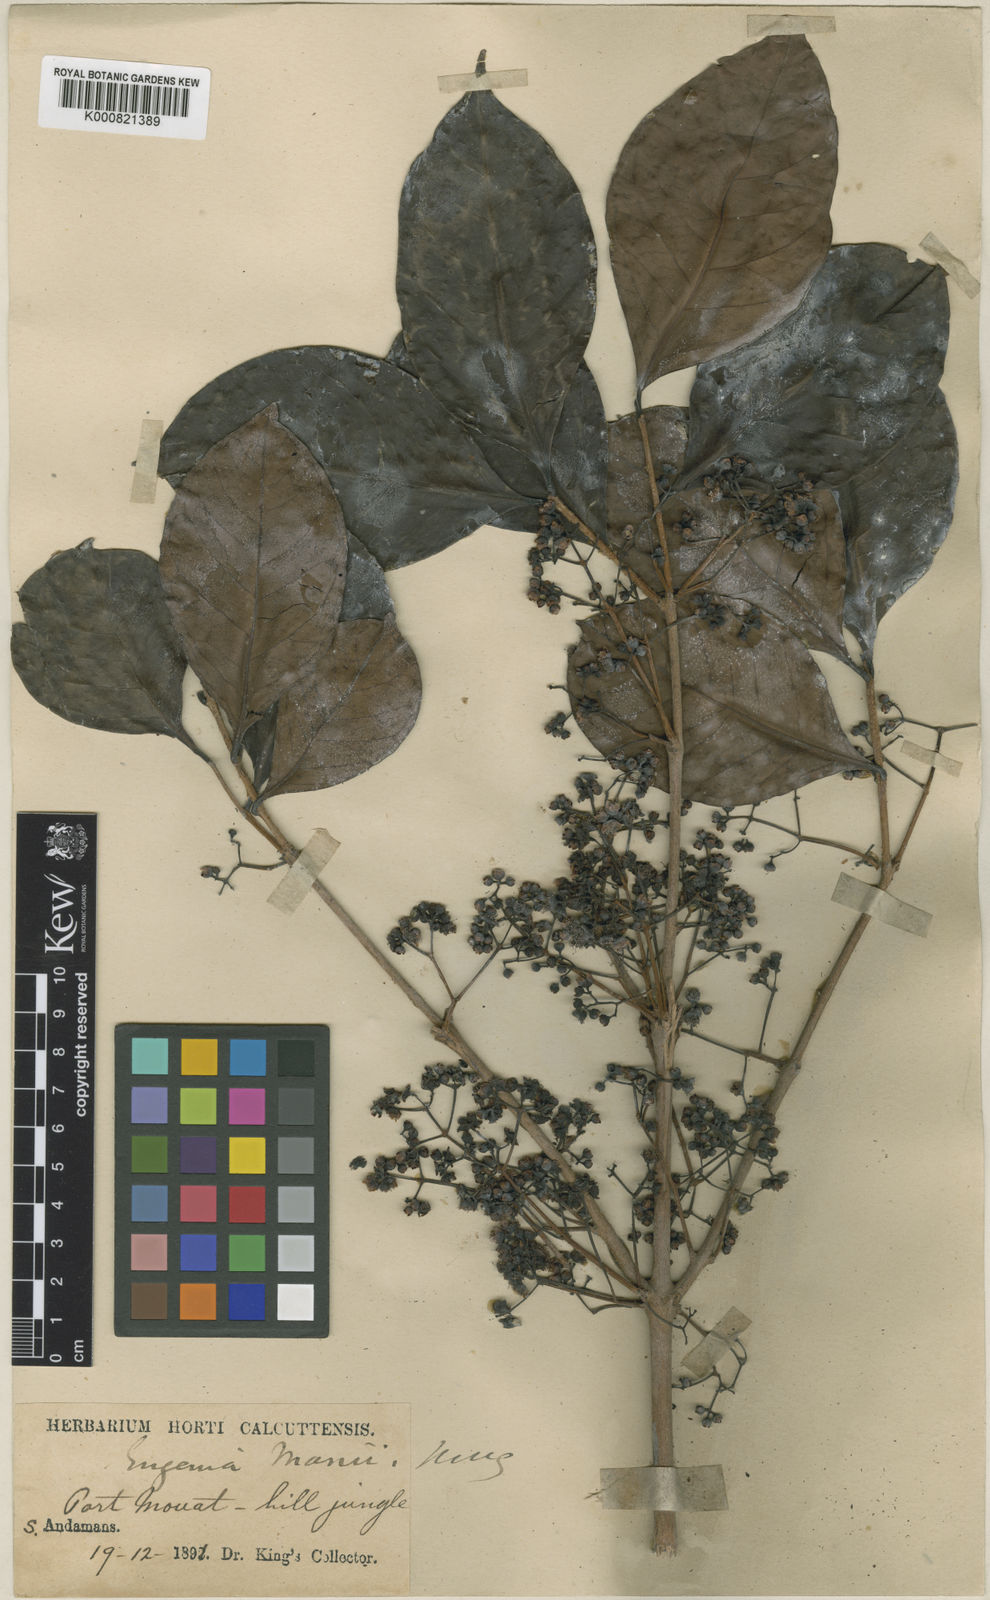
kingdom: Plantae
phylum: Tracheophyta
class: Magnoliopsida
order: Myrtales
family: Myrtaceae
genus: Syzygium
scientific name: Syzygium manii
